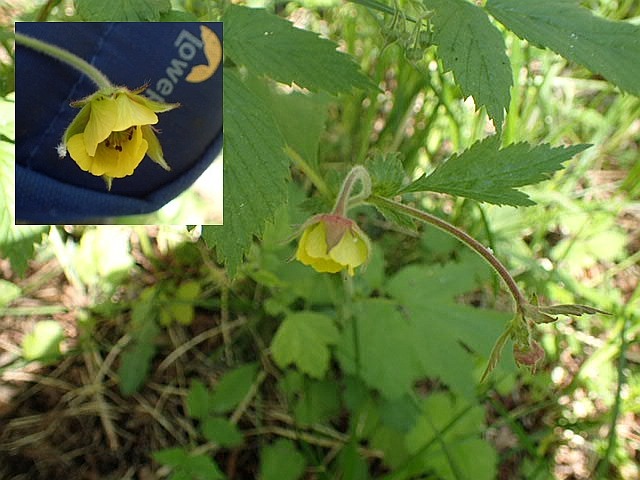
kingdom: Plantae
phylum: Tracheophyta
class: Magnoliopsida
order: Rosales
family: Rosaceae
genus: Geum
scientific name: Geum
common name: Høj nellikerod
